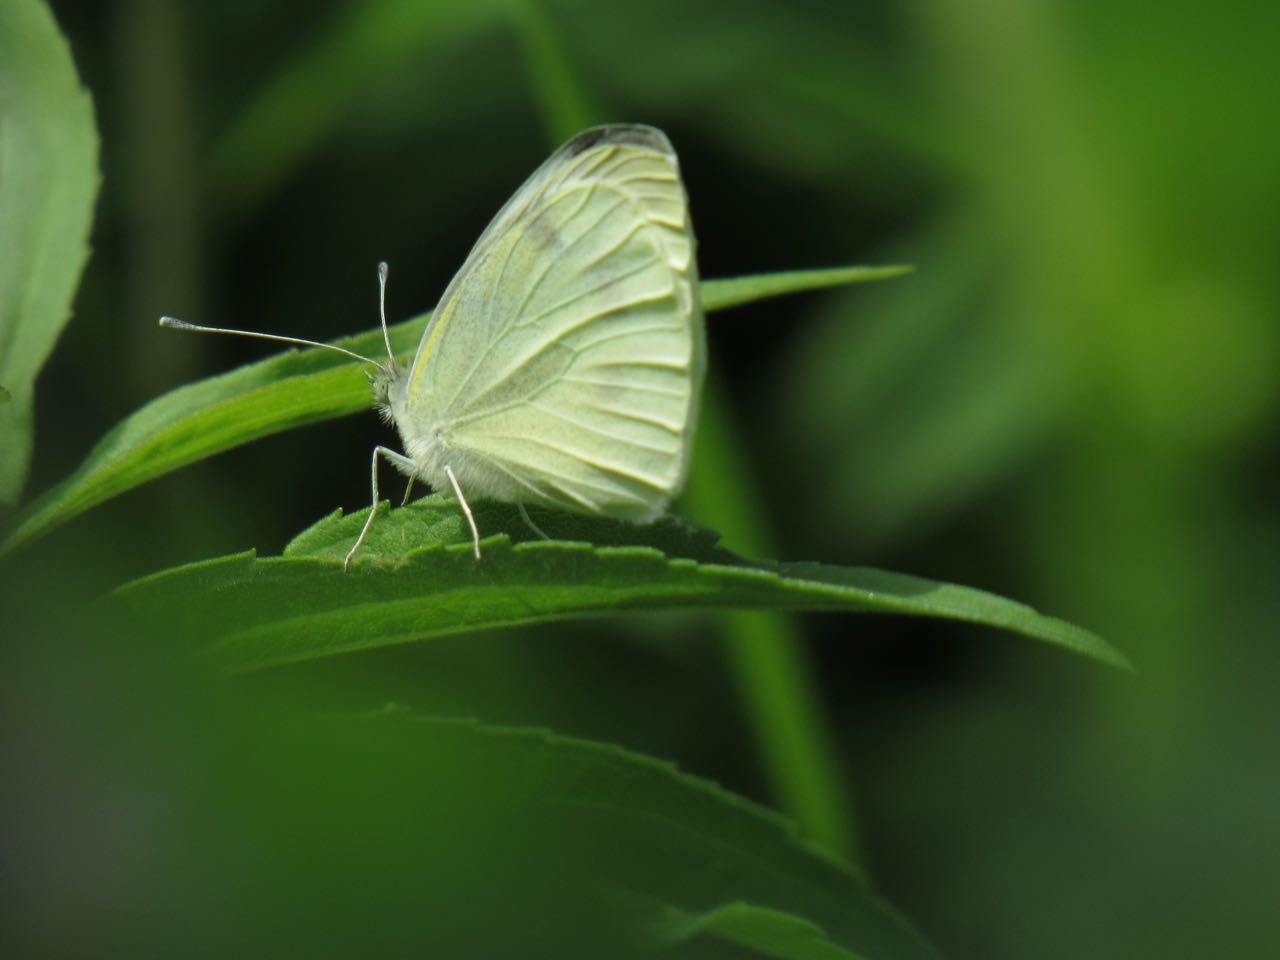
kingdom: Animalia
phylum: Arthropoda
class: Insecta
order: Lepidoptera
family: Pieridae
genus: Pieris
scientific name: Pieris rapae
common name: Cabbage White
